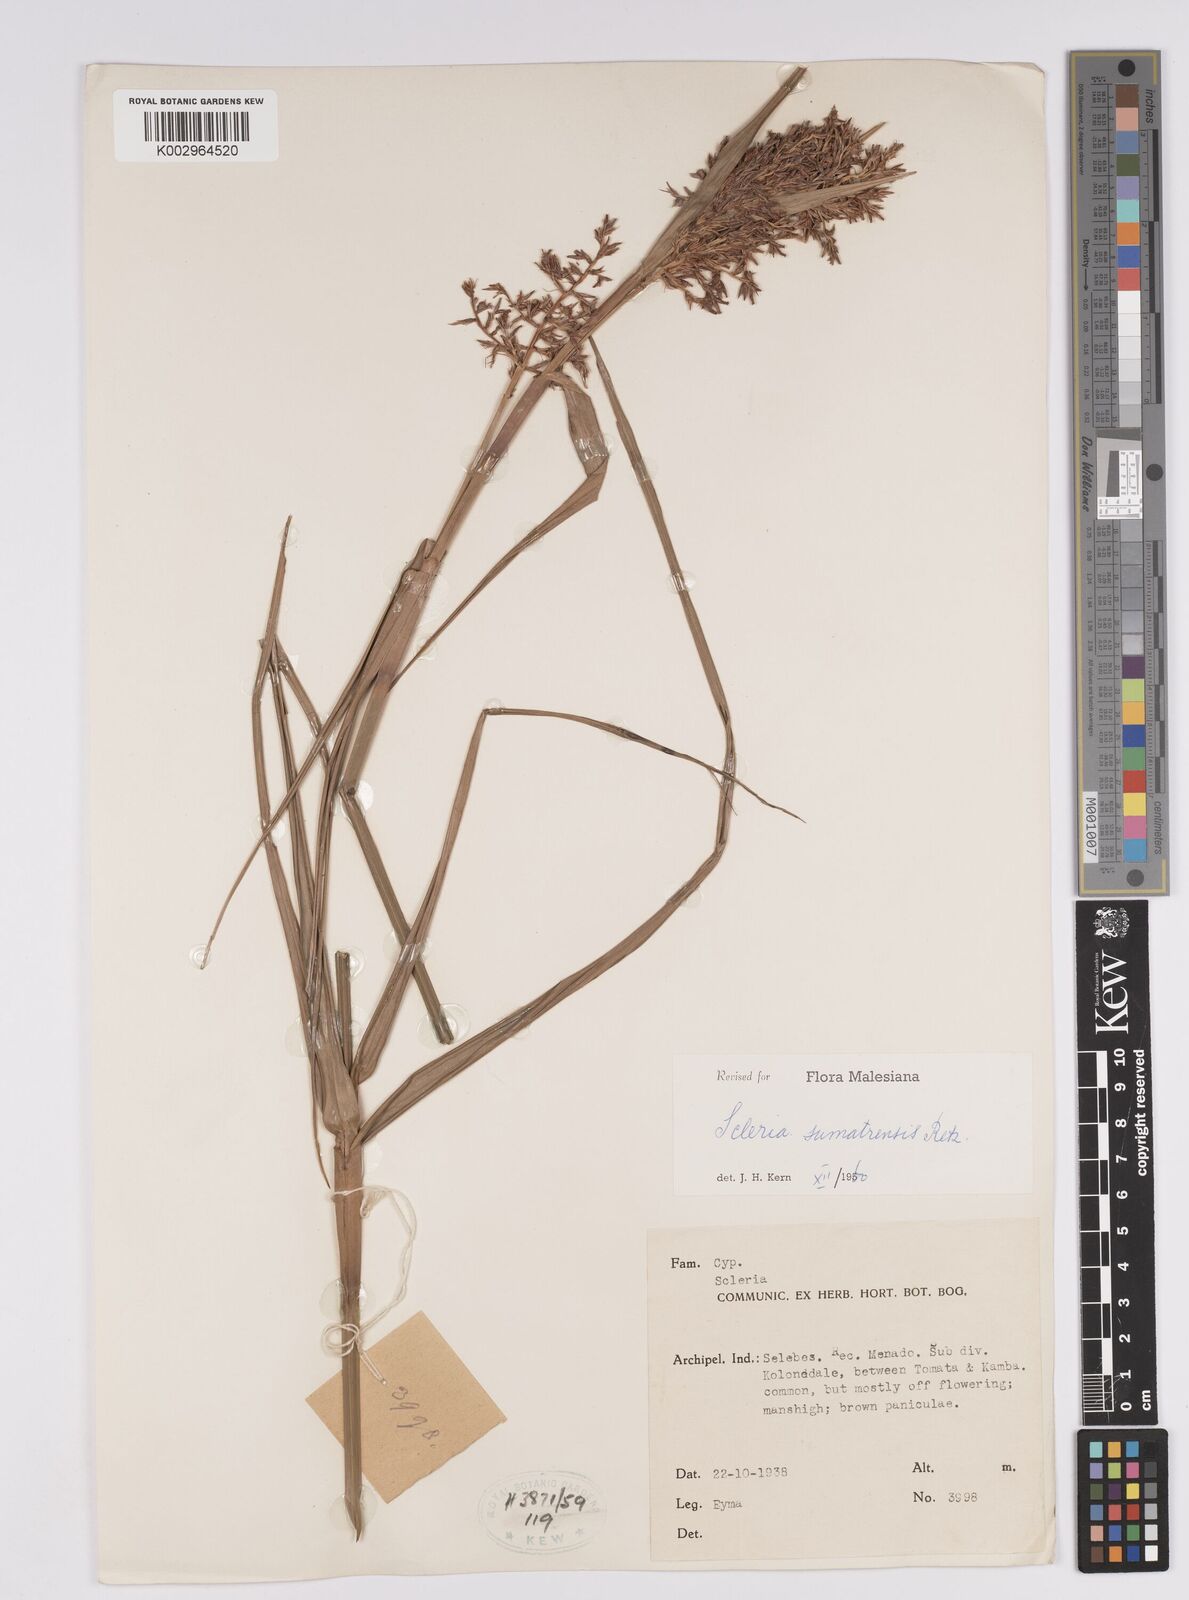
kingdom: Plantae
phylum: Tracheophyta
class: Liliopsida
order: Poales
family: Cyperaceae
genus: Scleria
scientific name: Scleria sumatrensis
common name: Sumatran scleria
